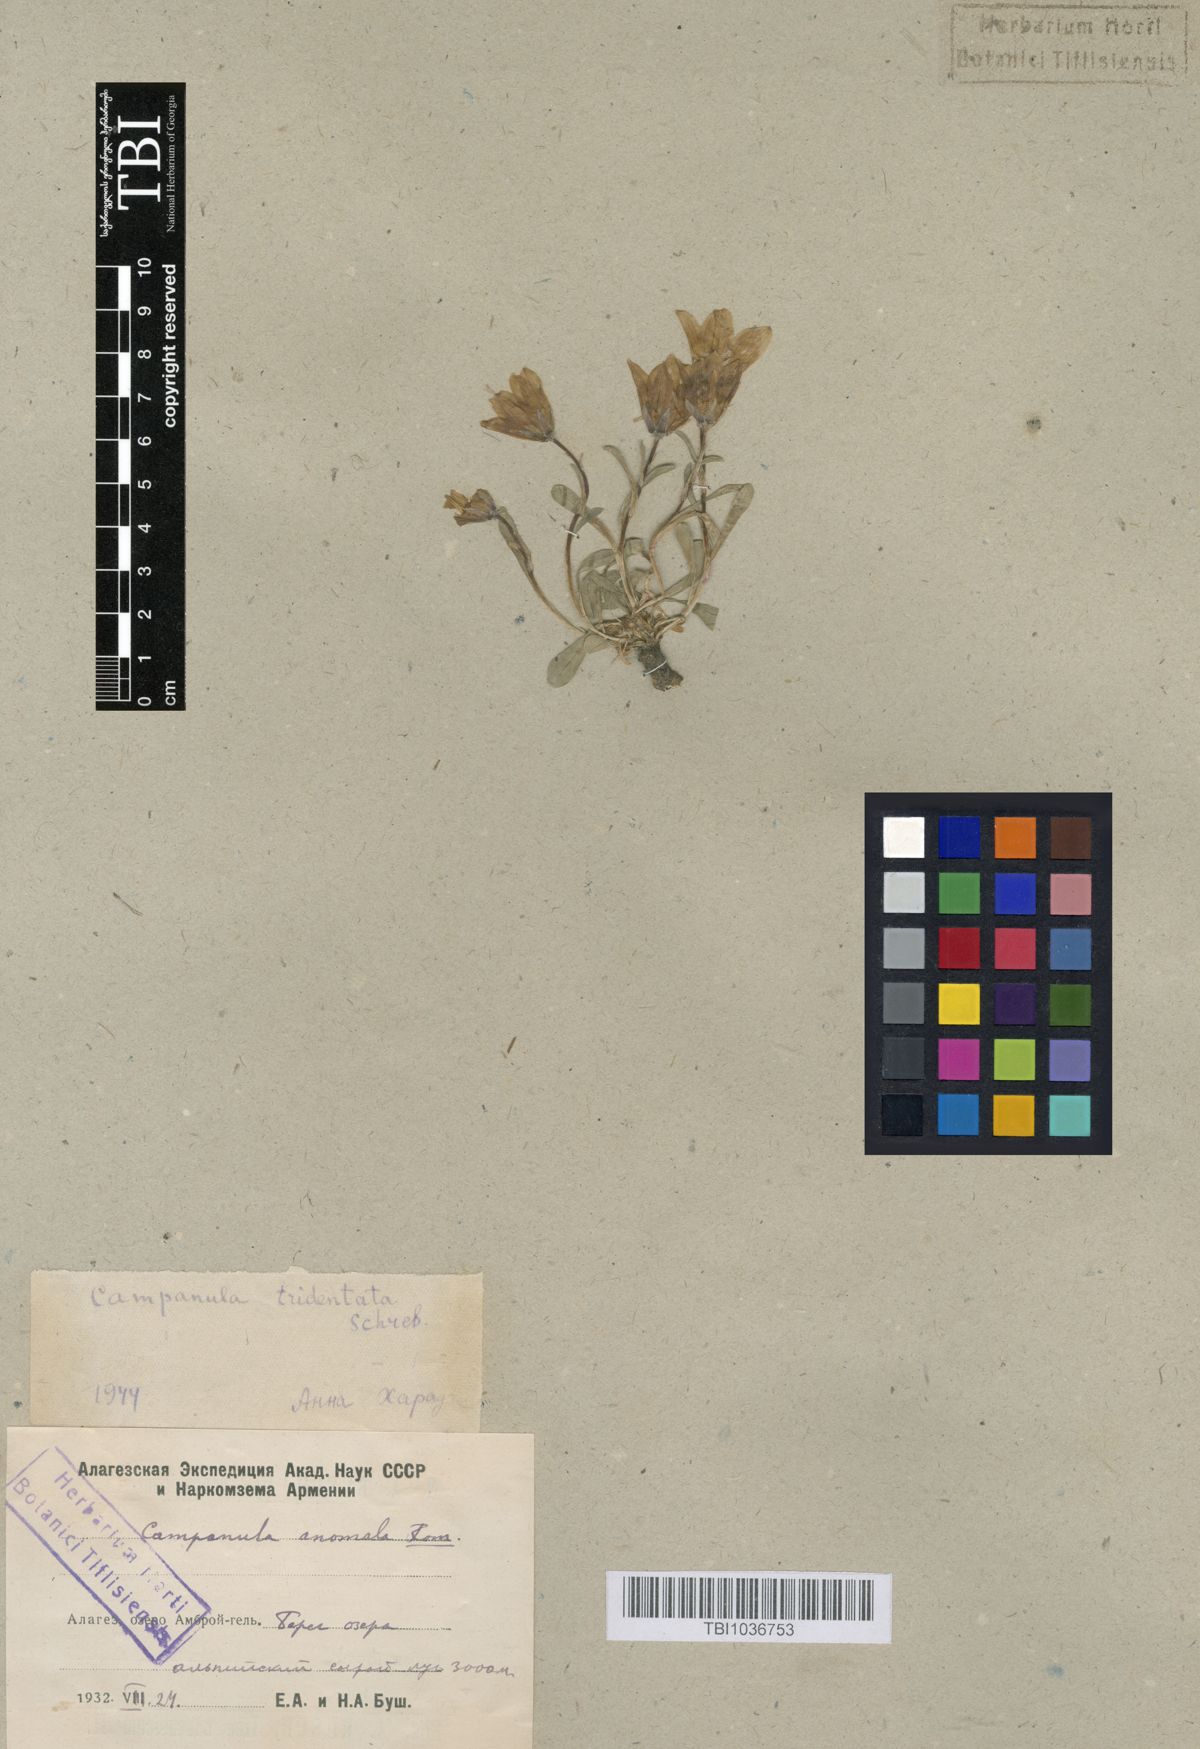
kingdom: Plantae
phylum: Tracheophyta
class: Magnoliopsida
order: Asterales
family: Campanulaceae
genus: Campanula
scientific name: Campanula tridentata
